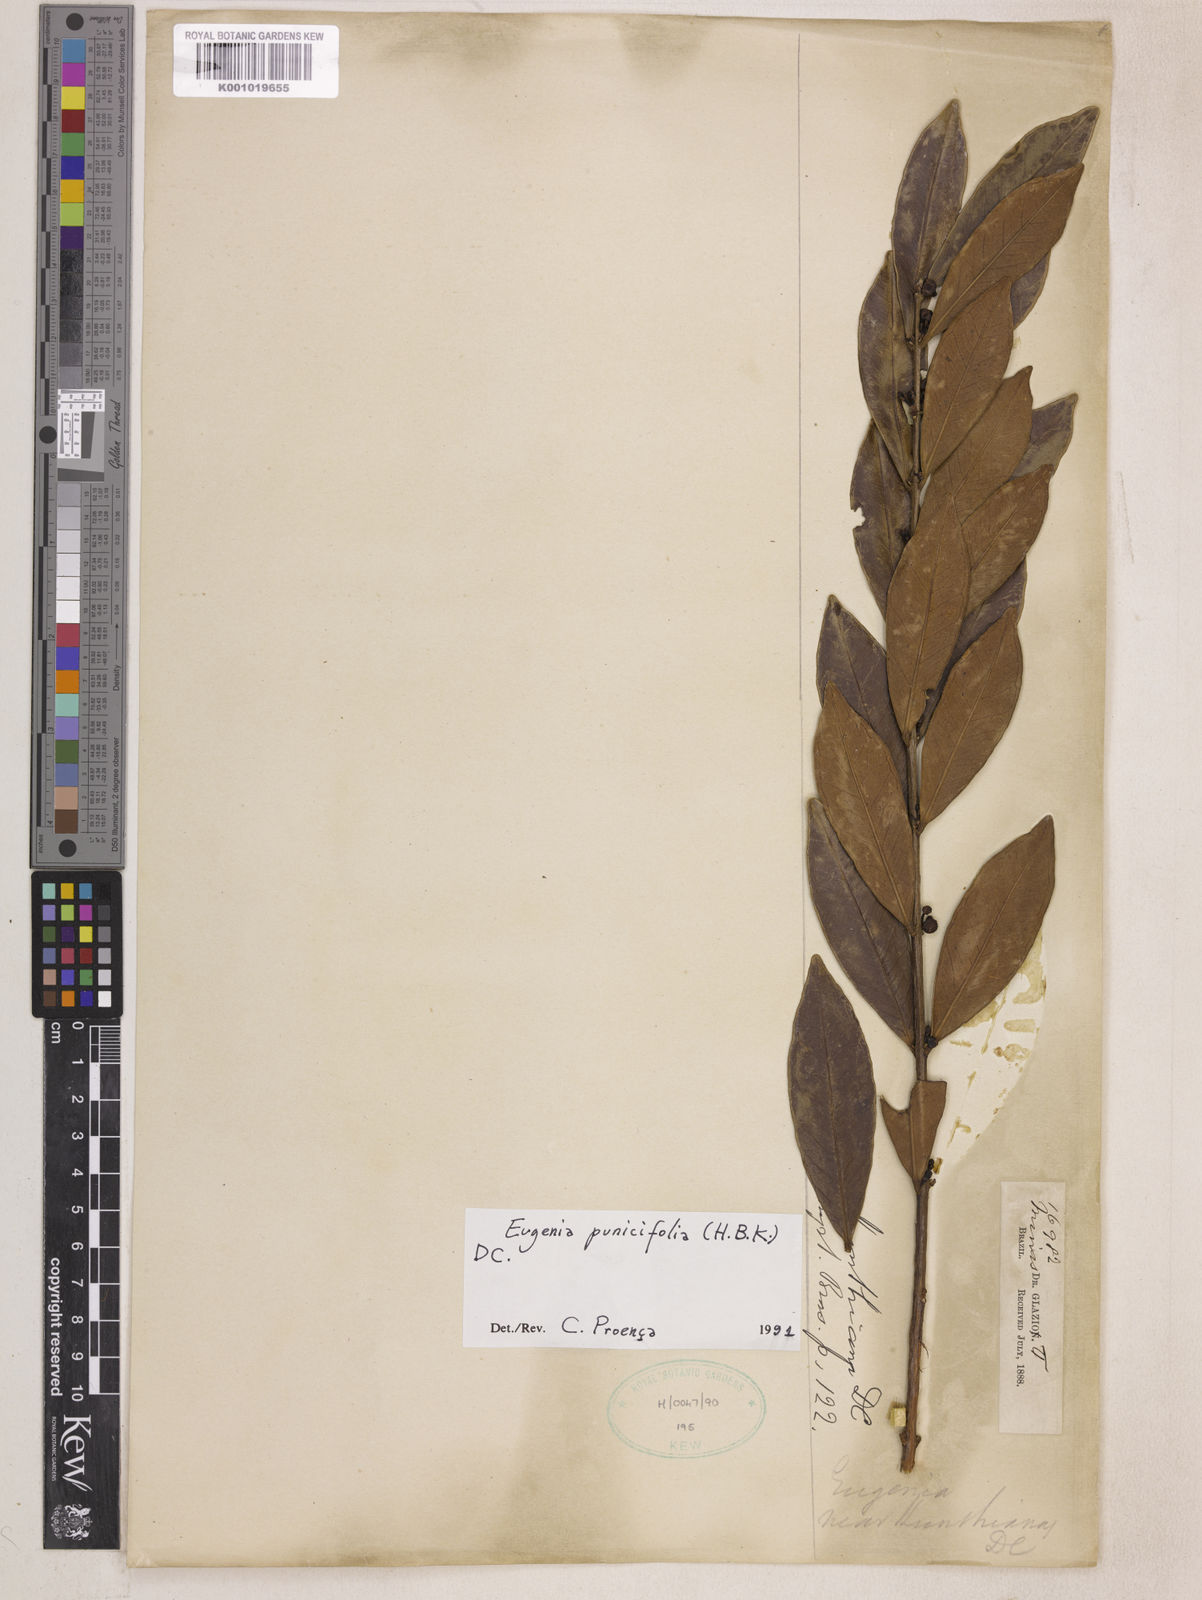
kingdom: Plantae
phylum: Tracheophyta
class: Magnoliopsida
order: Myrtales
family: Myrtaceae
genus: Eugenia
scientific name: Eugenia punicifolia
